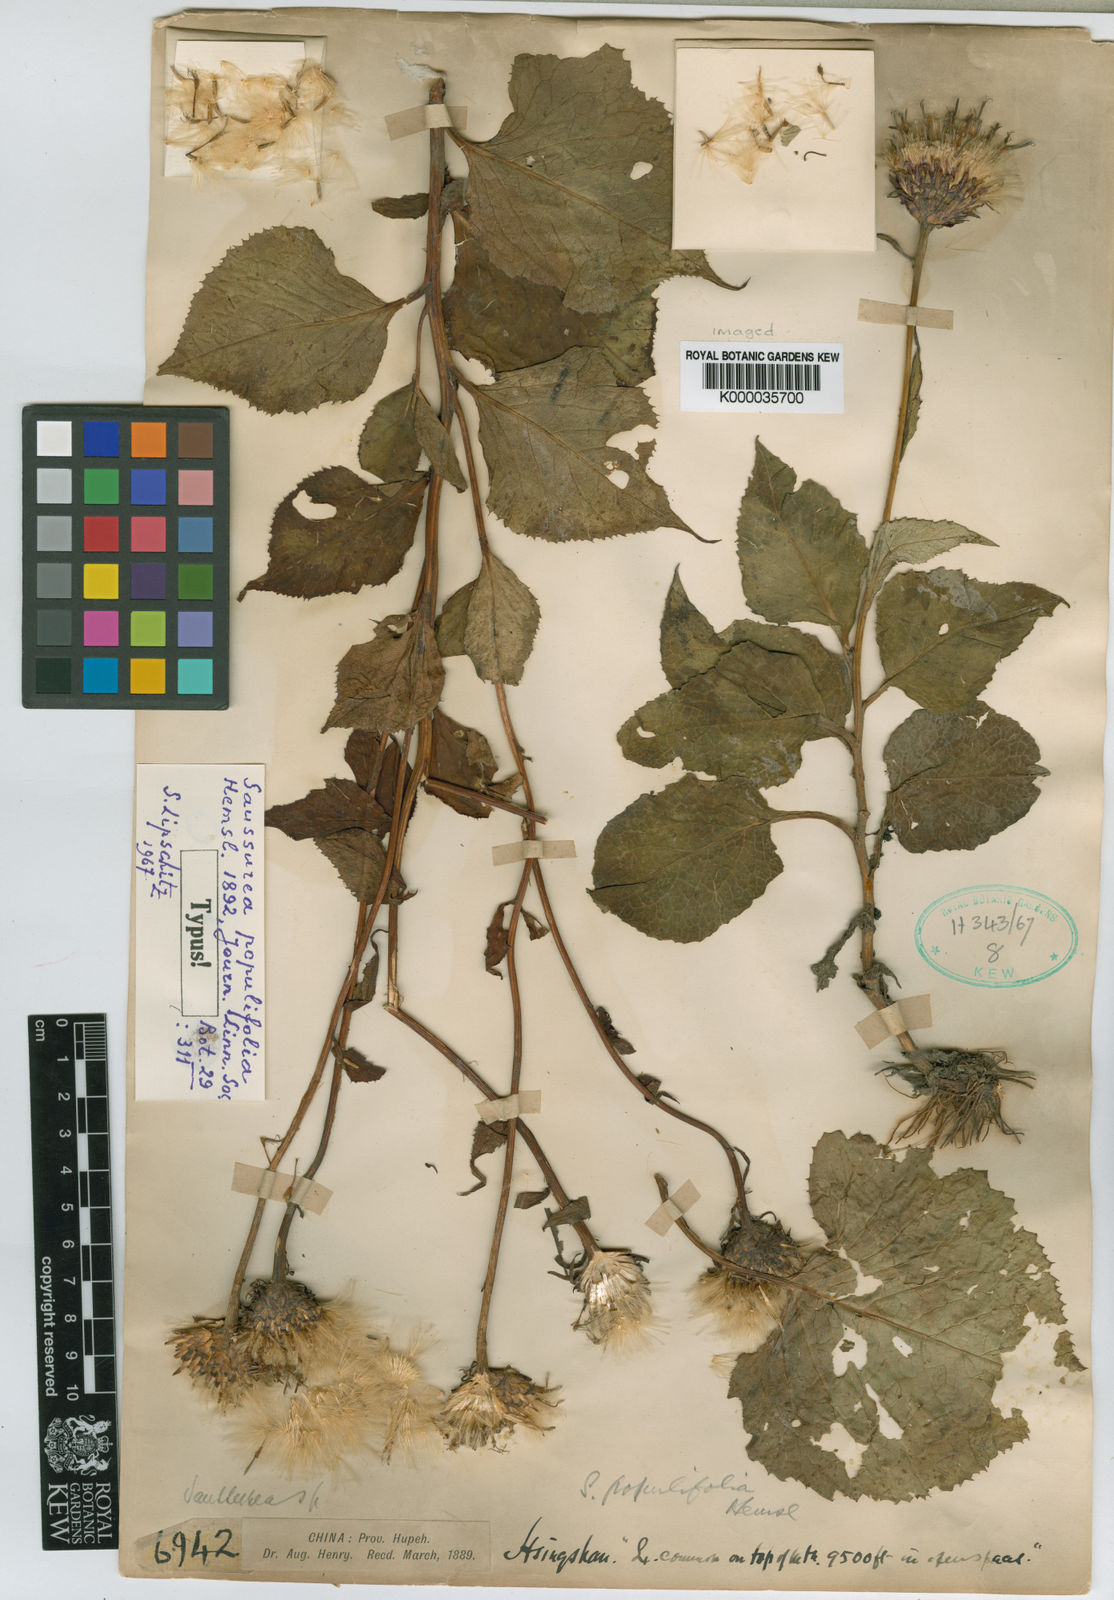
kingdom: Plantae
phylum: Tracheophyta
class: Magnoliopsida
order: Asterales
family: Asteraceae
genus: Saussurea
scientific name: Saussurea populifolia
